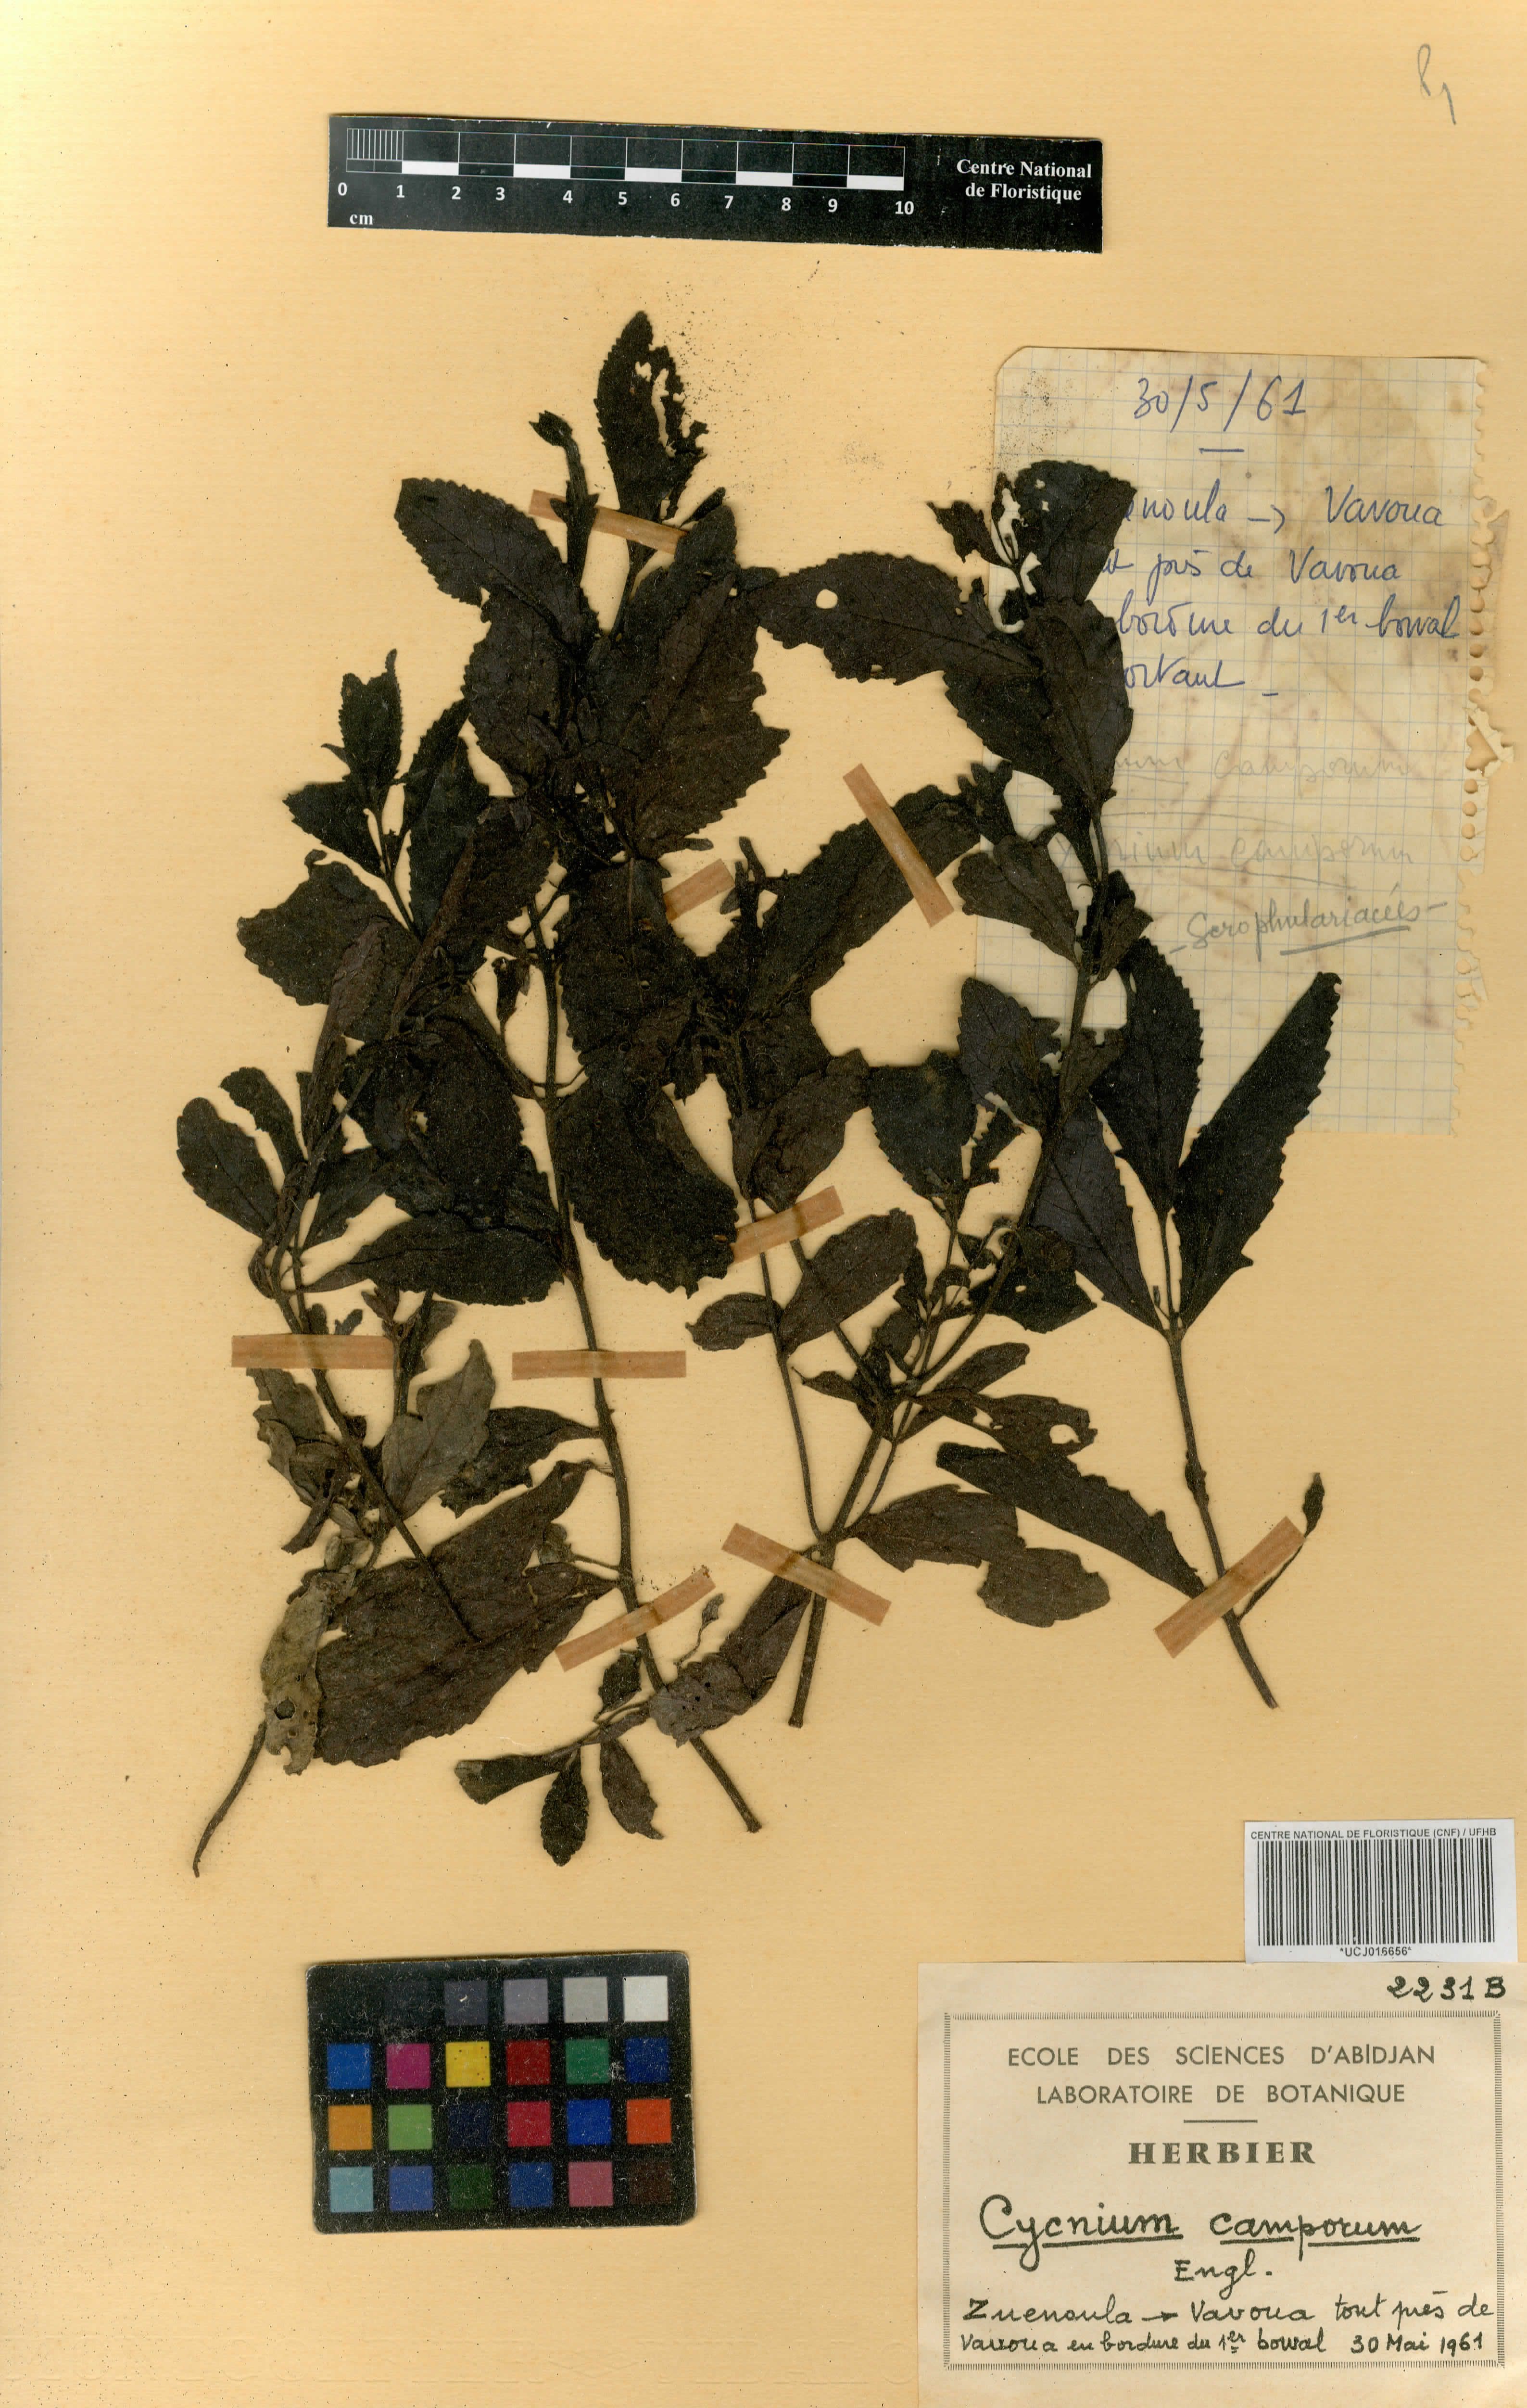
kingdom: Plantae
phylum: Tracheophyta
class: Magnoliopsida
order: Lamiales
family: Orobanchaceae
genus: Cycnium
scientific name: Cycnium adoense
